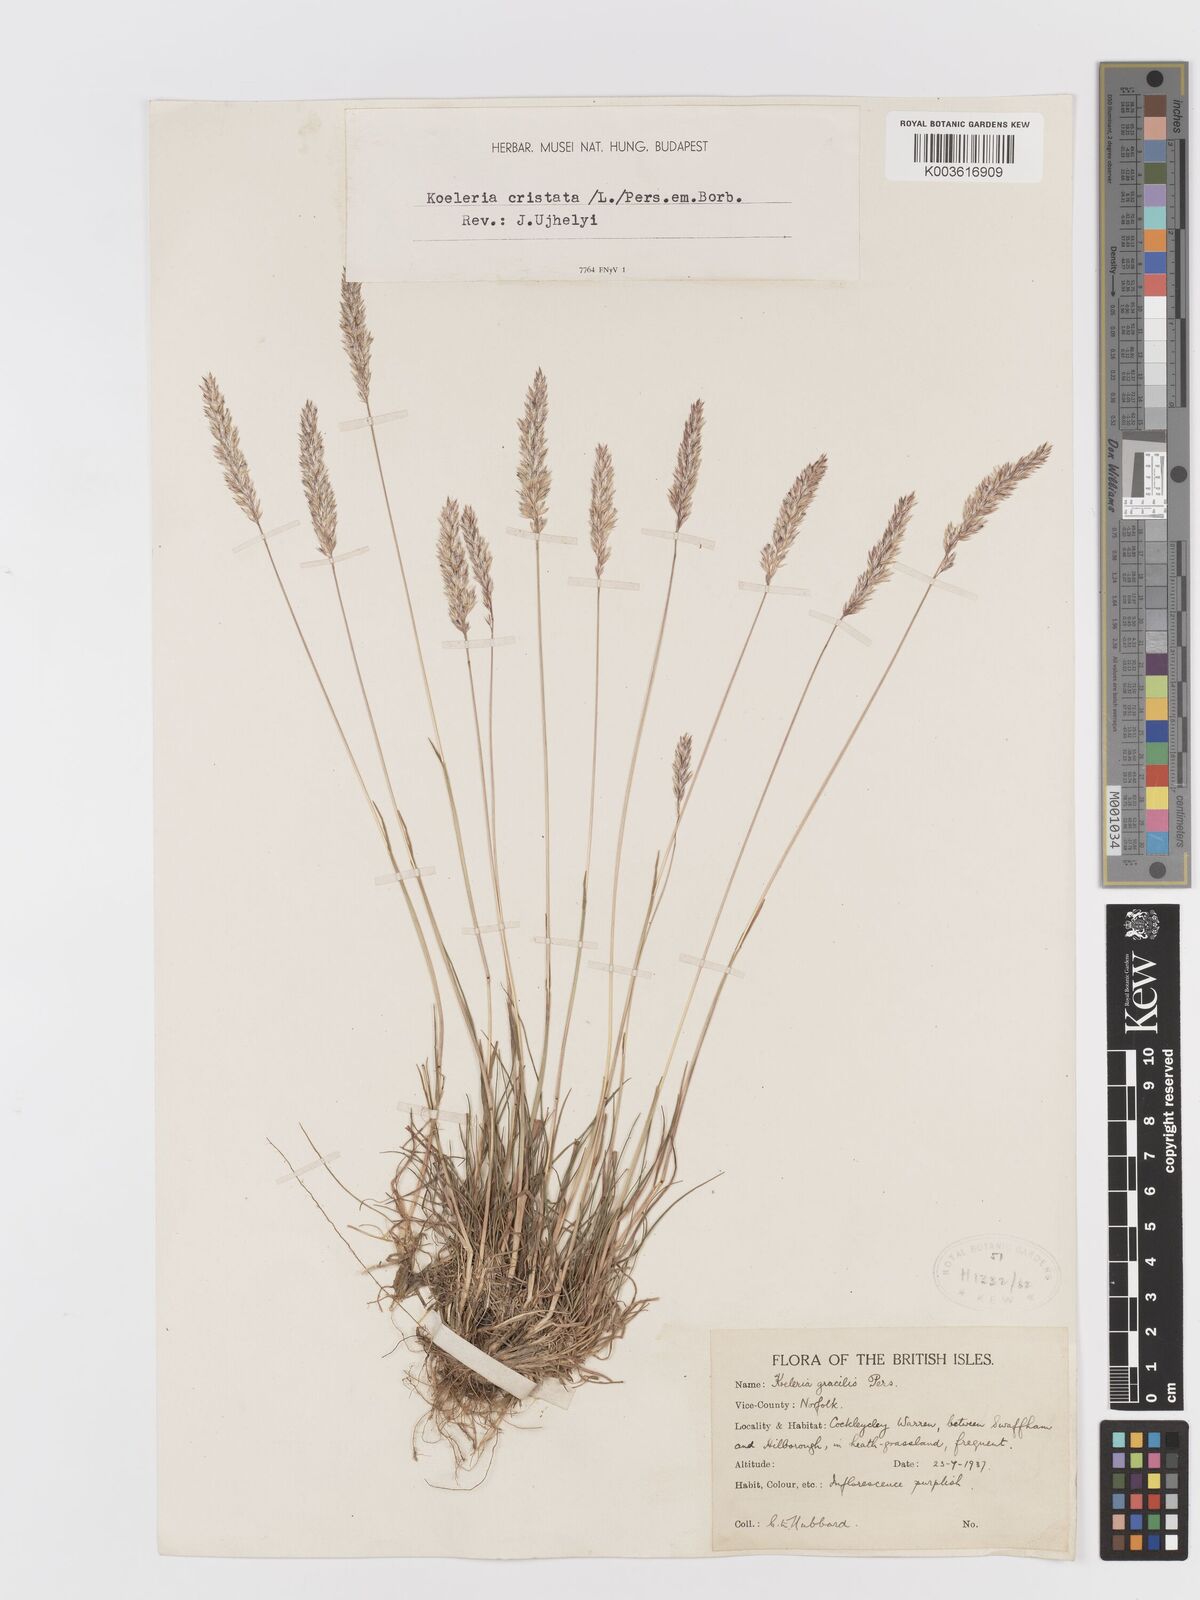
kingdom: Plantae
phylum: Tracheophyta
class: Liliopsida
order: Poales
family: Poaceae
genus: Koeleria
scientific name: Koeleria macrantha
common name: Crested hair-grass
